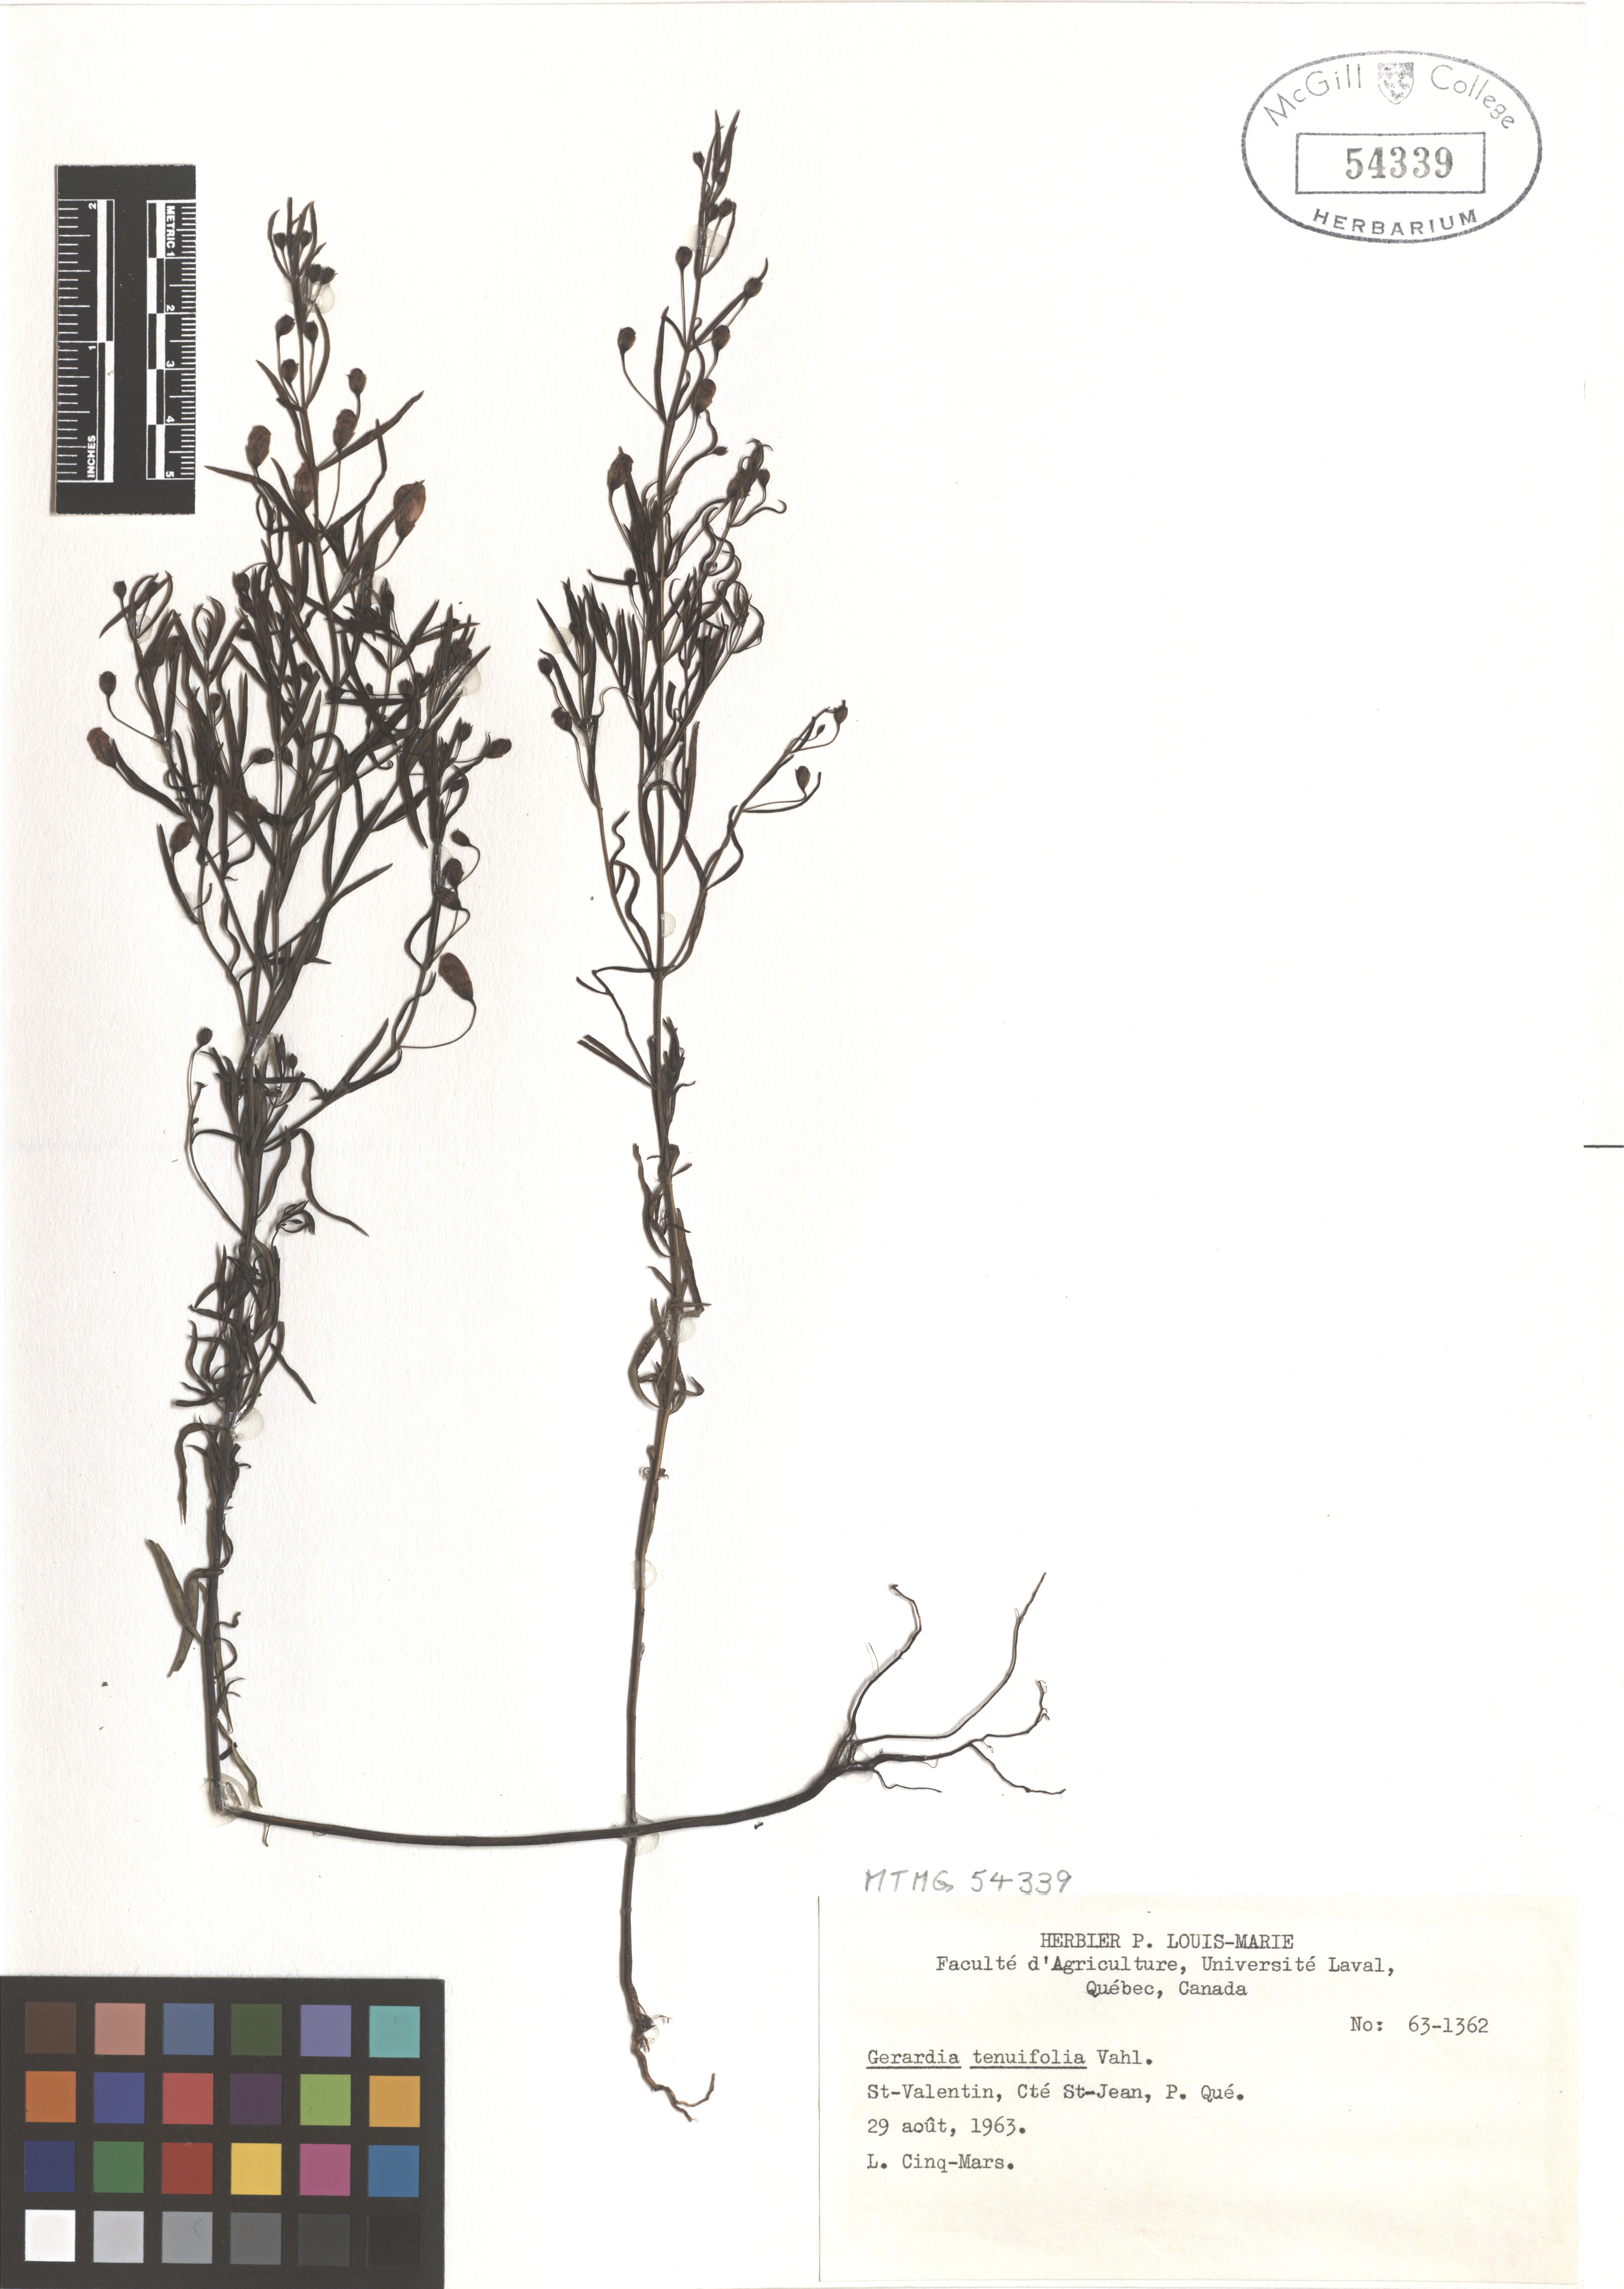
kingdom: Plantae
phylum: Tracheophyta
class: Magnoliopsida
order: Lamiales
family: Orobanchaceae
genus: Agalinis
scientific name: Agalinis tenuifolia
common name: Slender agalinis
